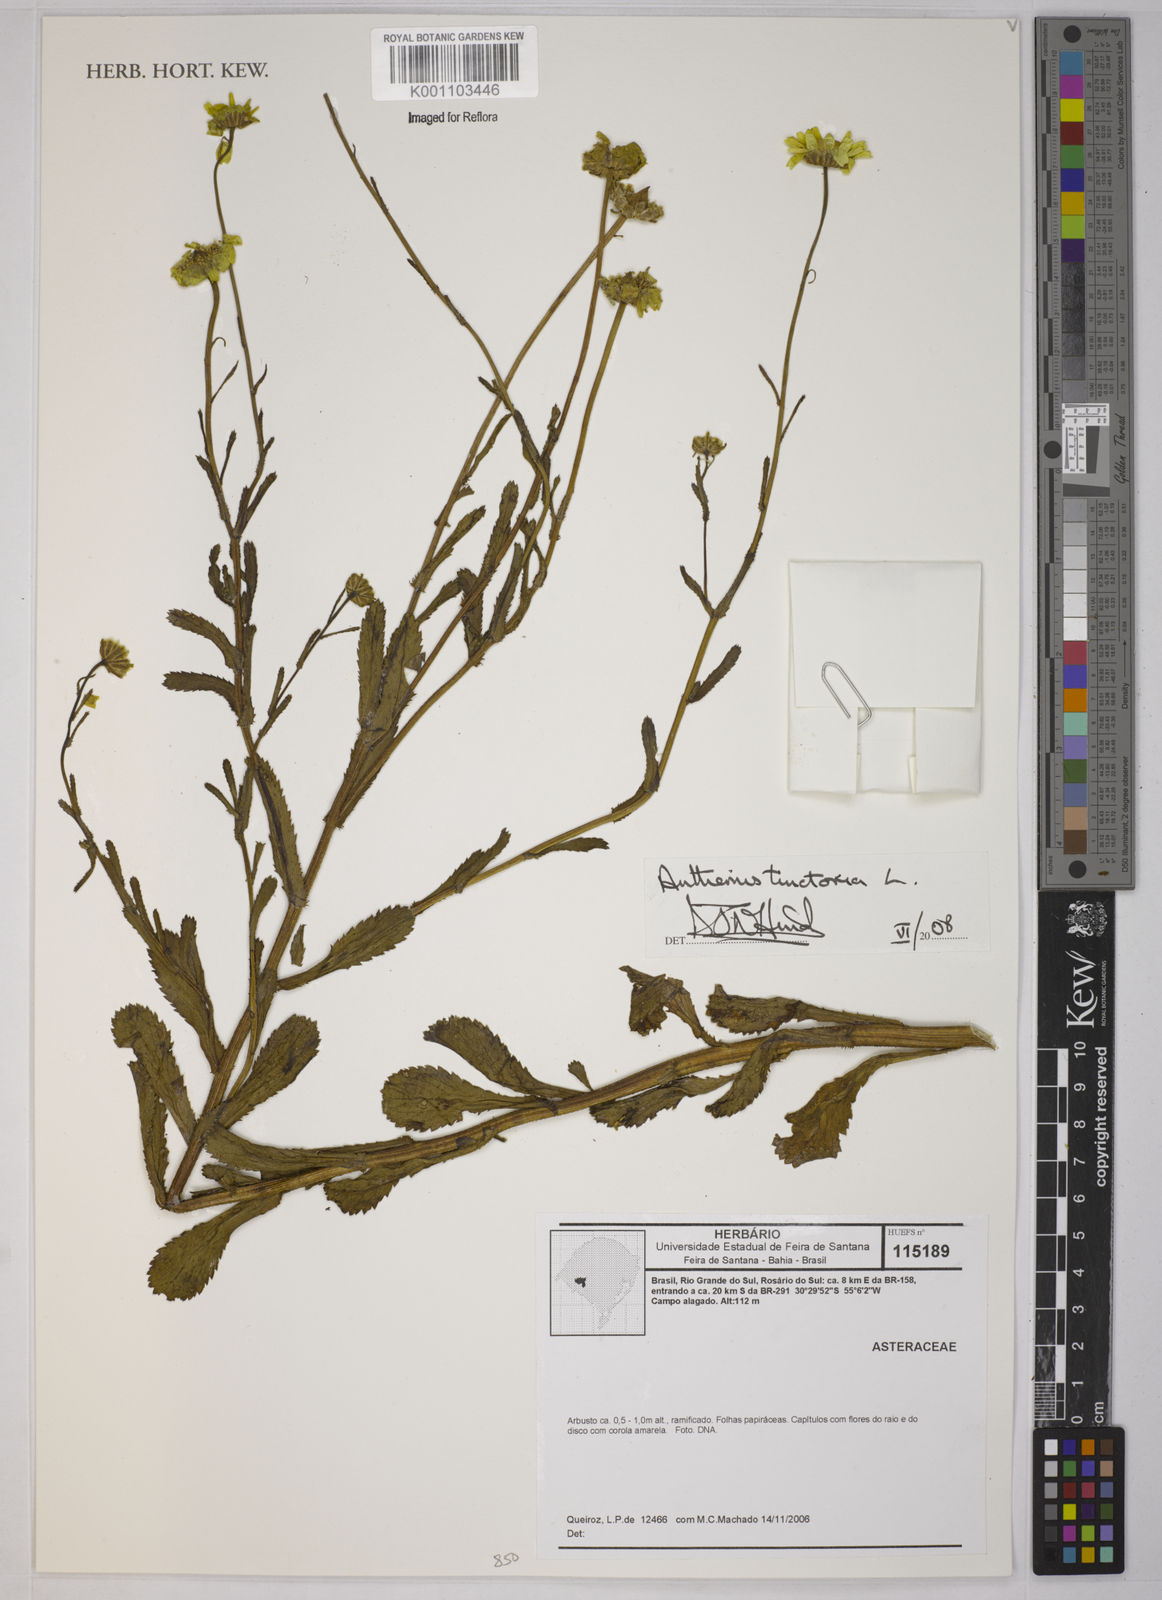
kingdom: Plantae
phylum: Tracheophyta
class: Magnoliopsida
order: Asterales
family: Asteraceae
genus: Cota
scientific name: Cota tinctoria
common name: Golden chamomile
